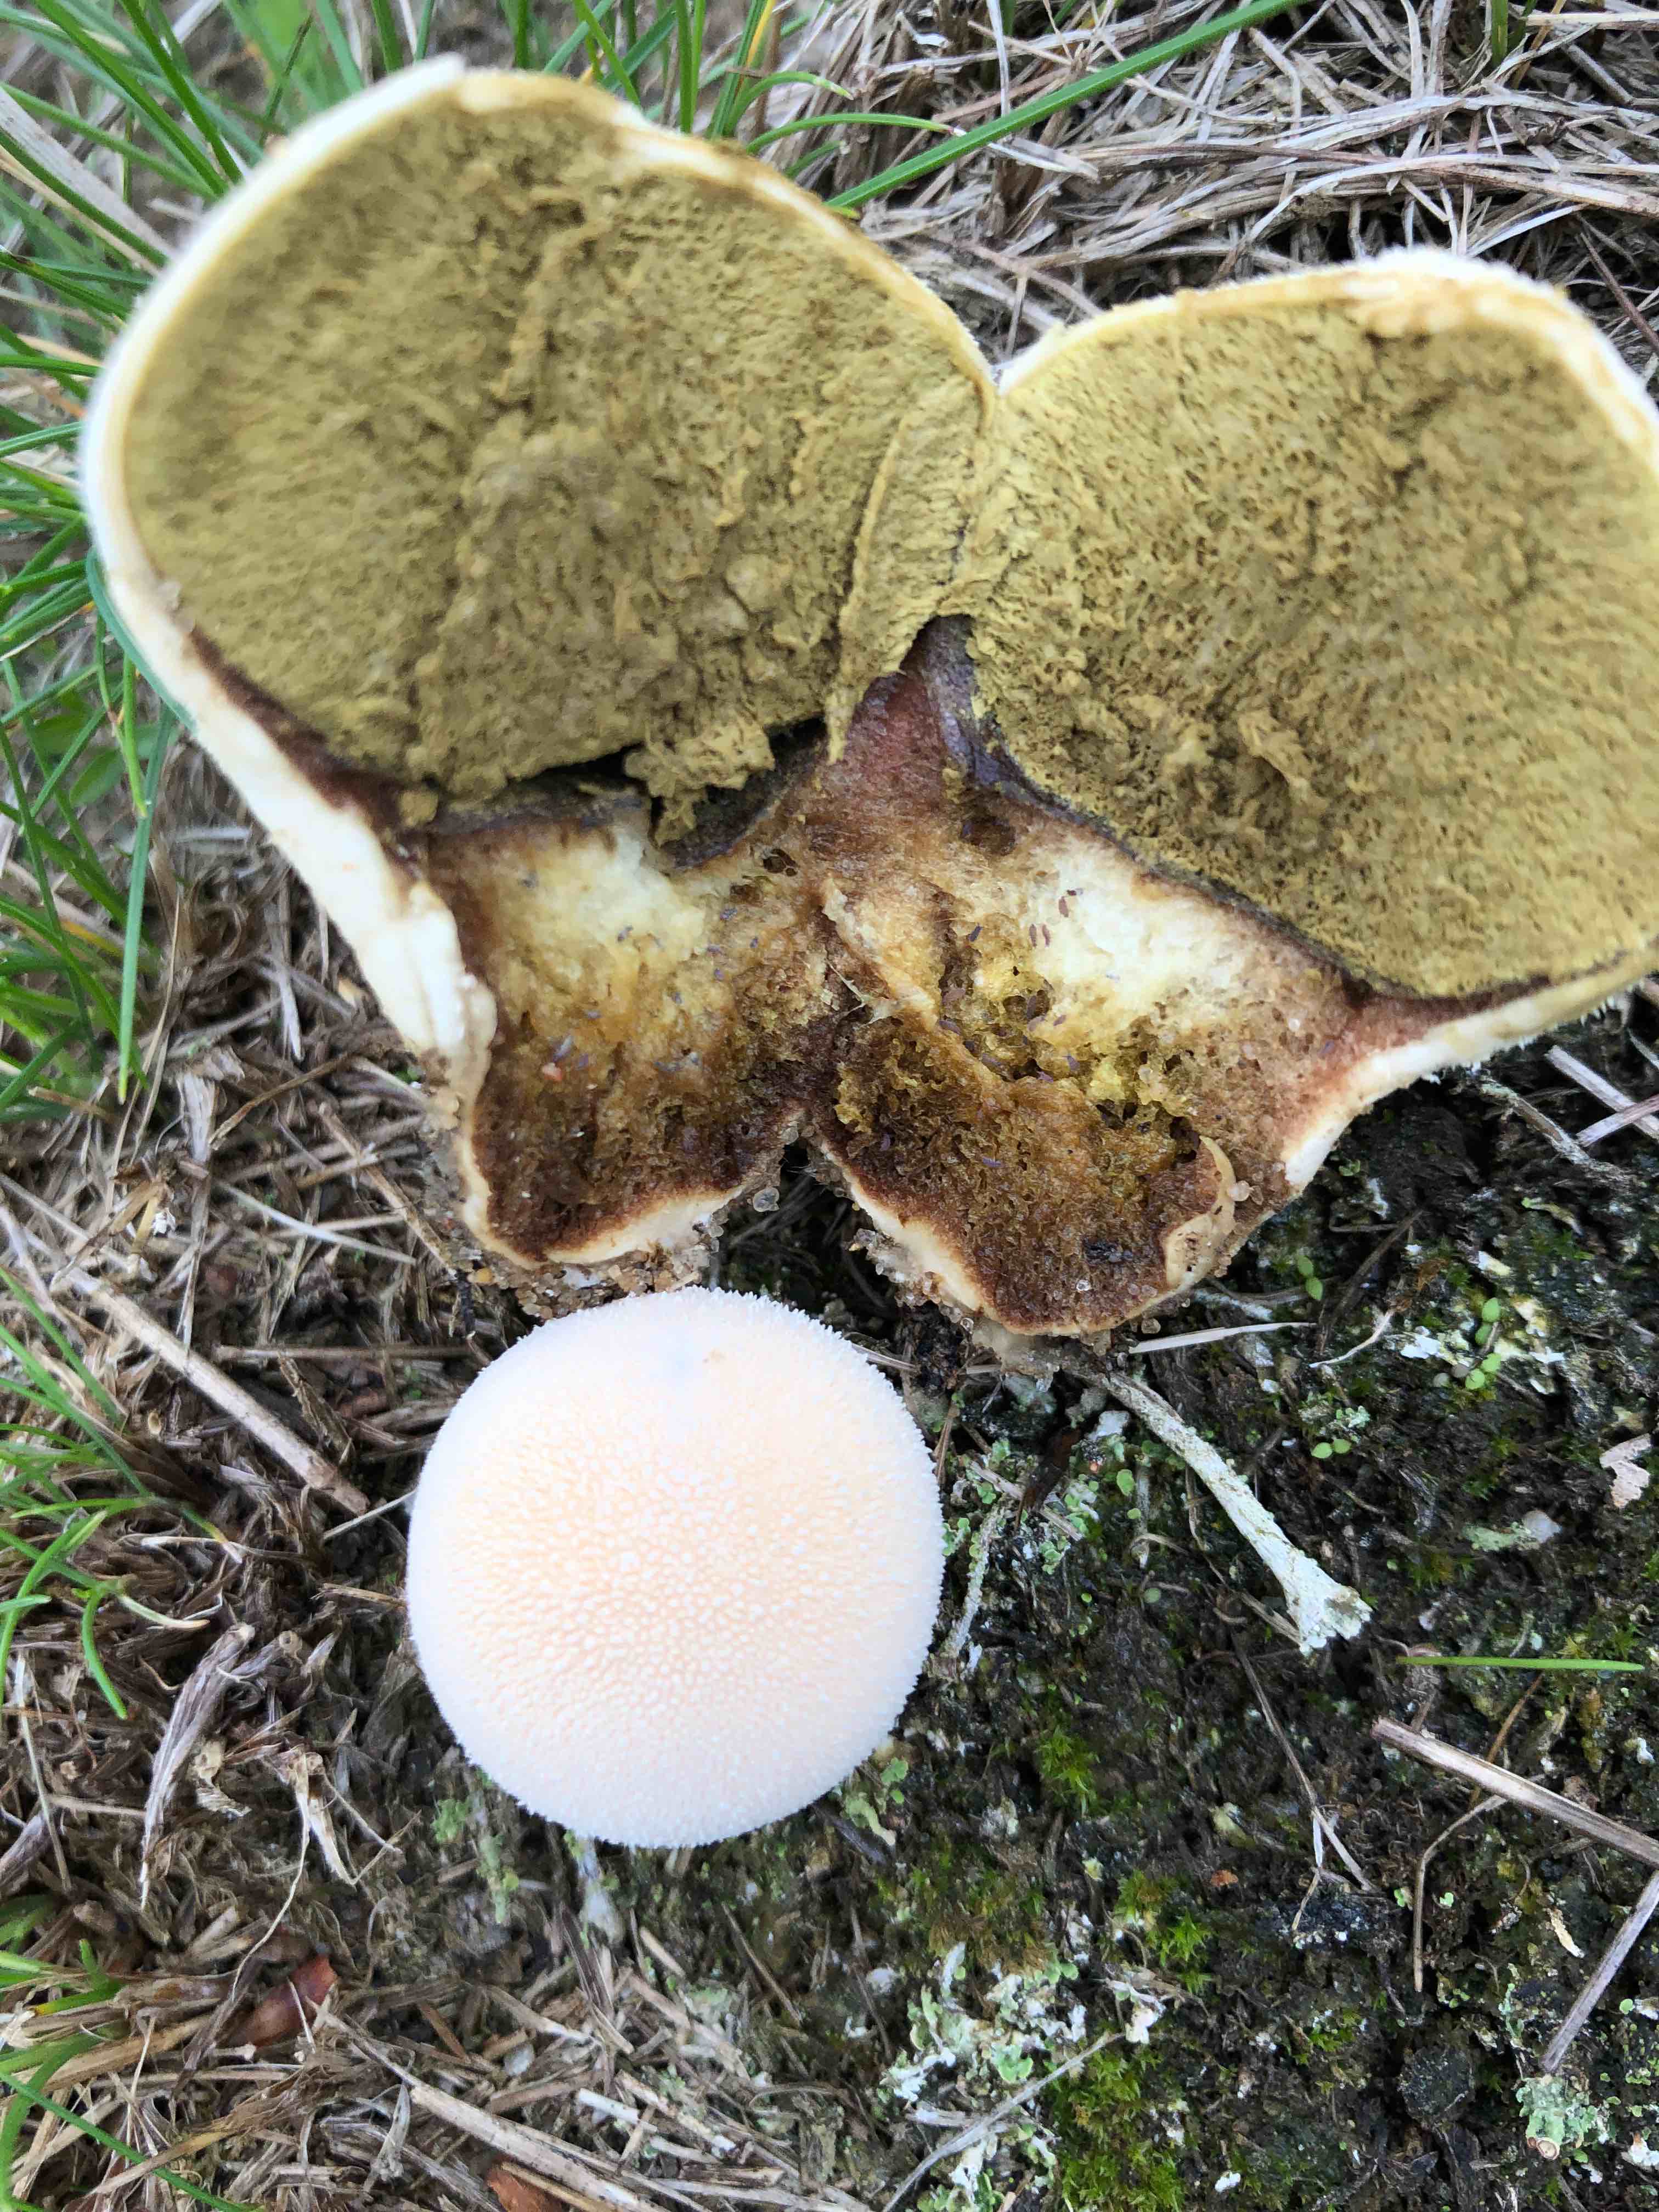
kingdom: Fungi
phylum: Basidiomycota
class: Agaricomycetes
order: Agaricales
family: Lycoperdaceae
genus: Lycoperdon
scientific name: Lycoperdon pratense
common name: flad støvbold
